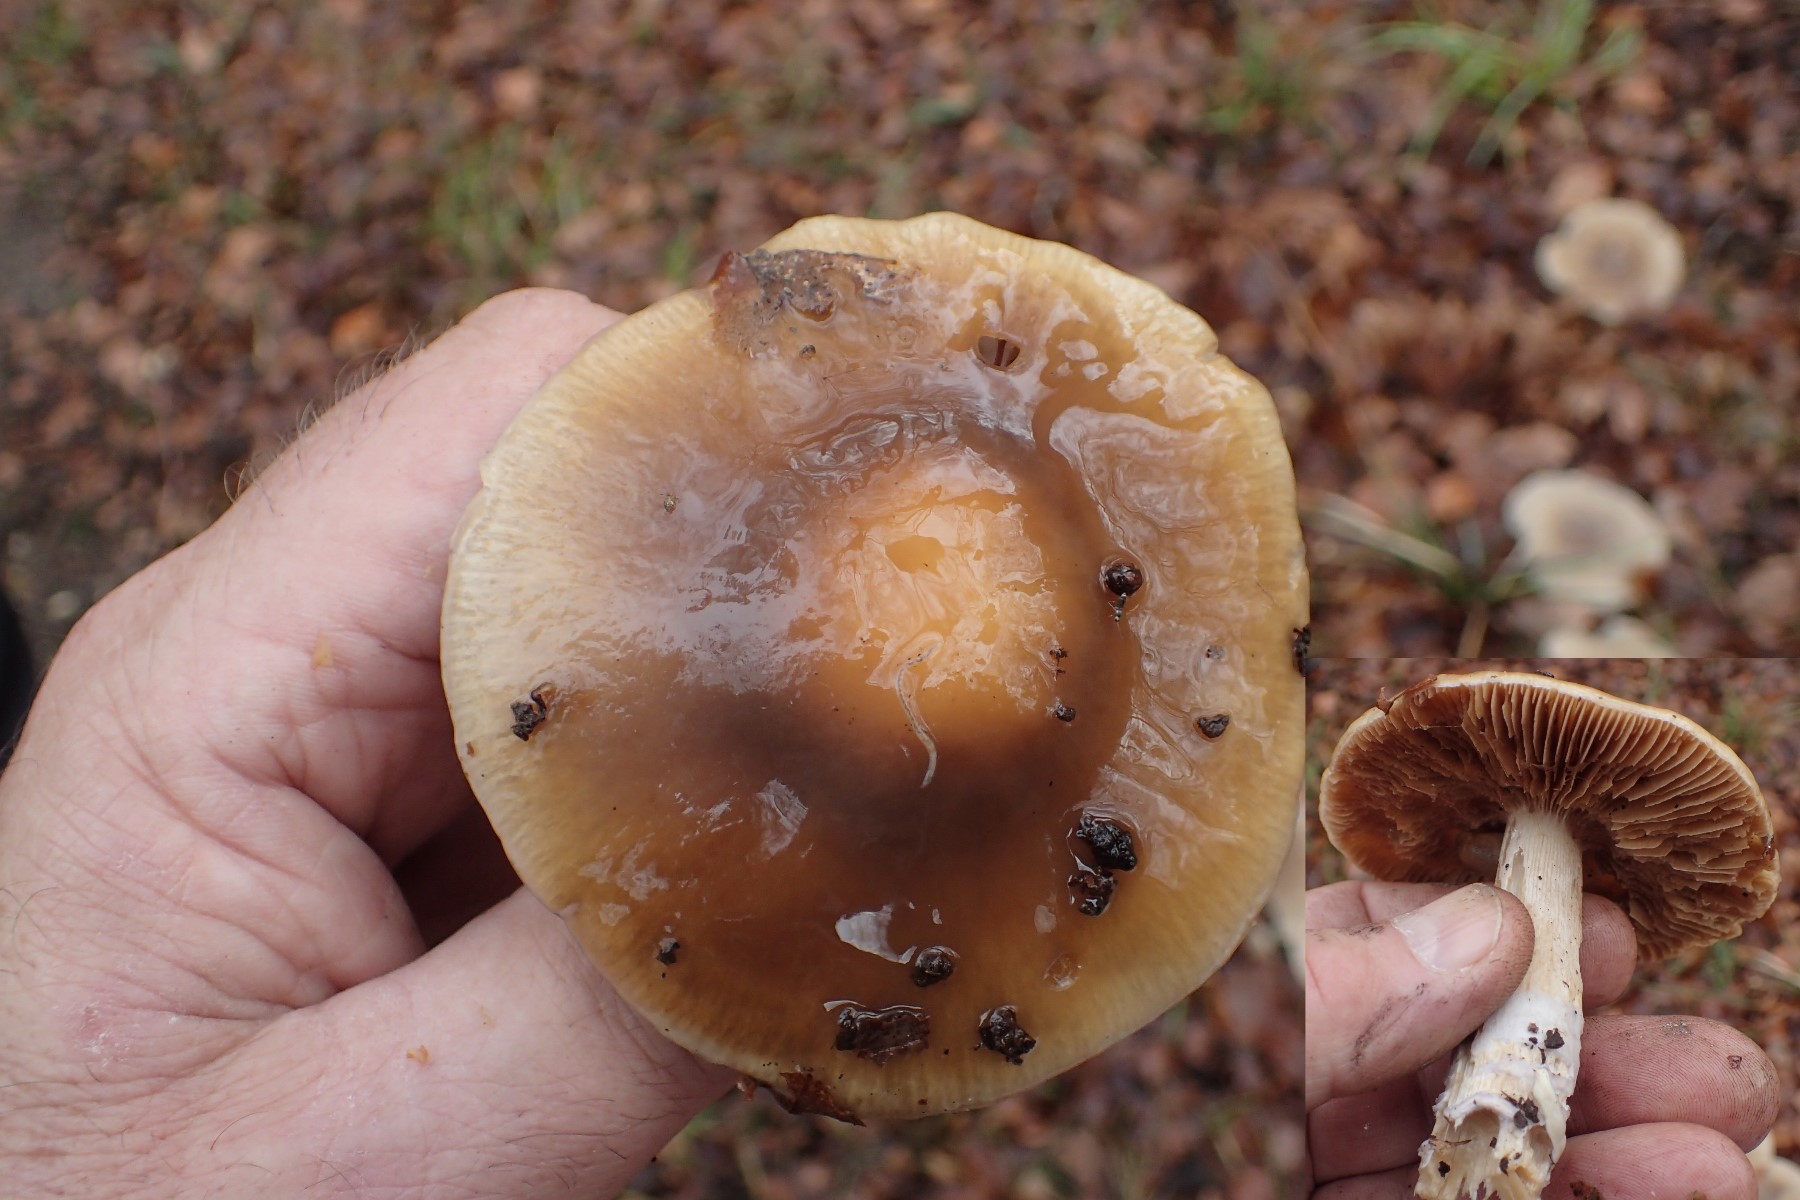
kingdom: Fungi
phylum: Basidiomycota
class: Agaricomycetes
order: Agaricales
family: Cortinariaceae
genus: Cortinarius
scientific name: Cortinarius elatior
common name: høj slørhat
